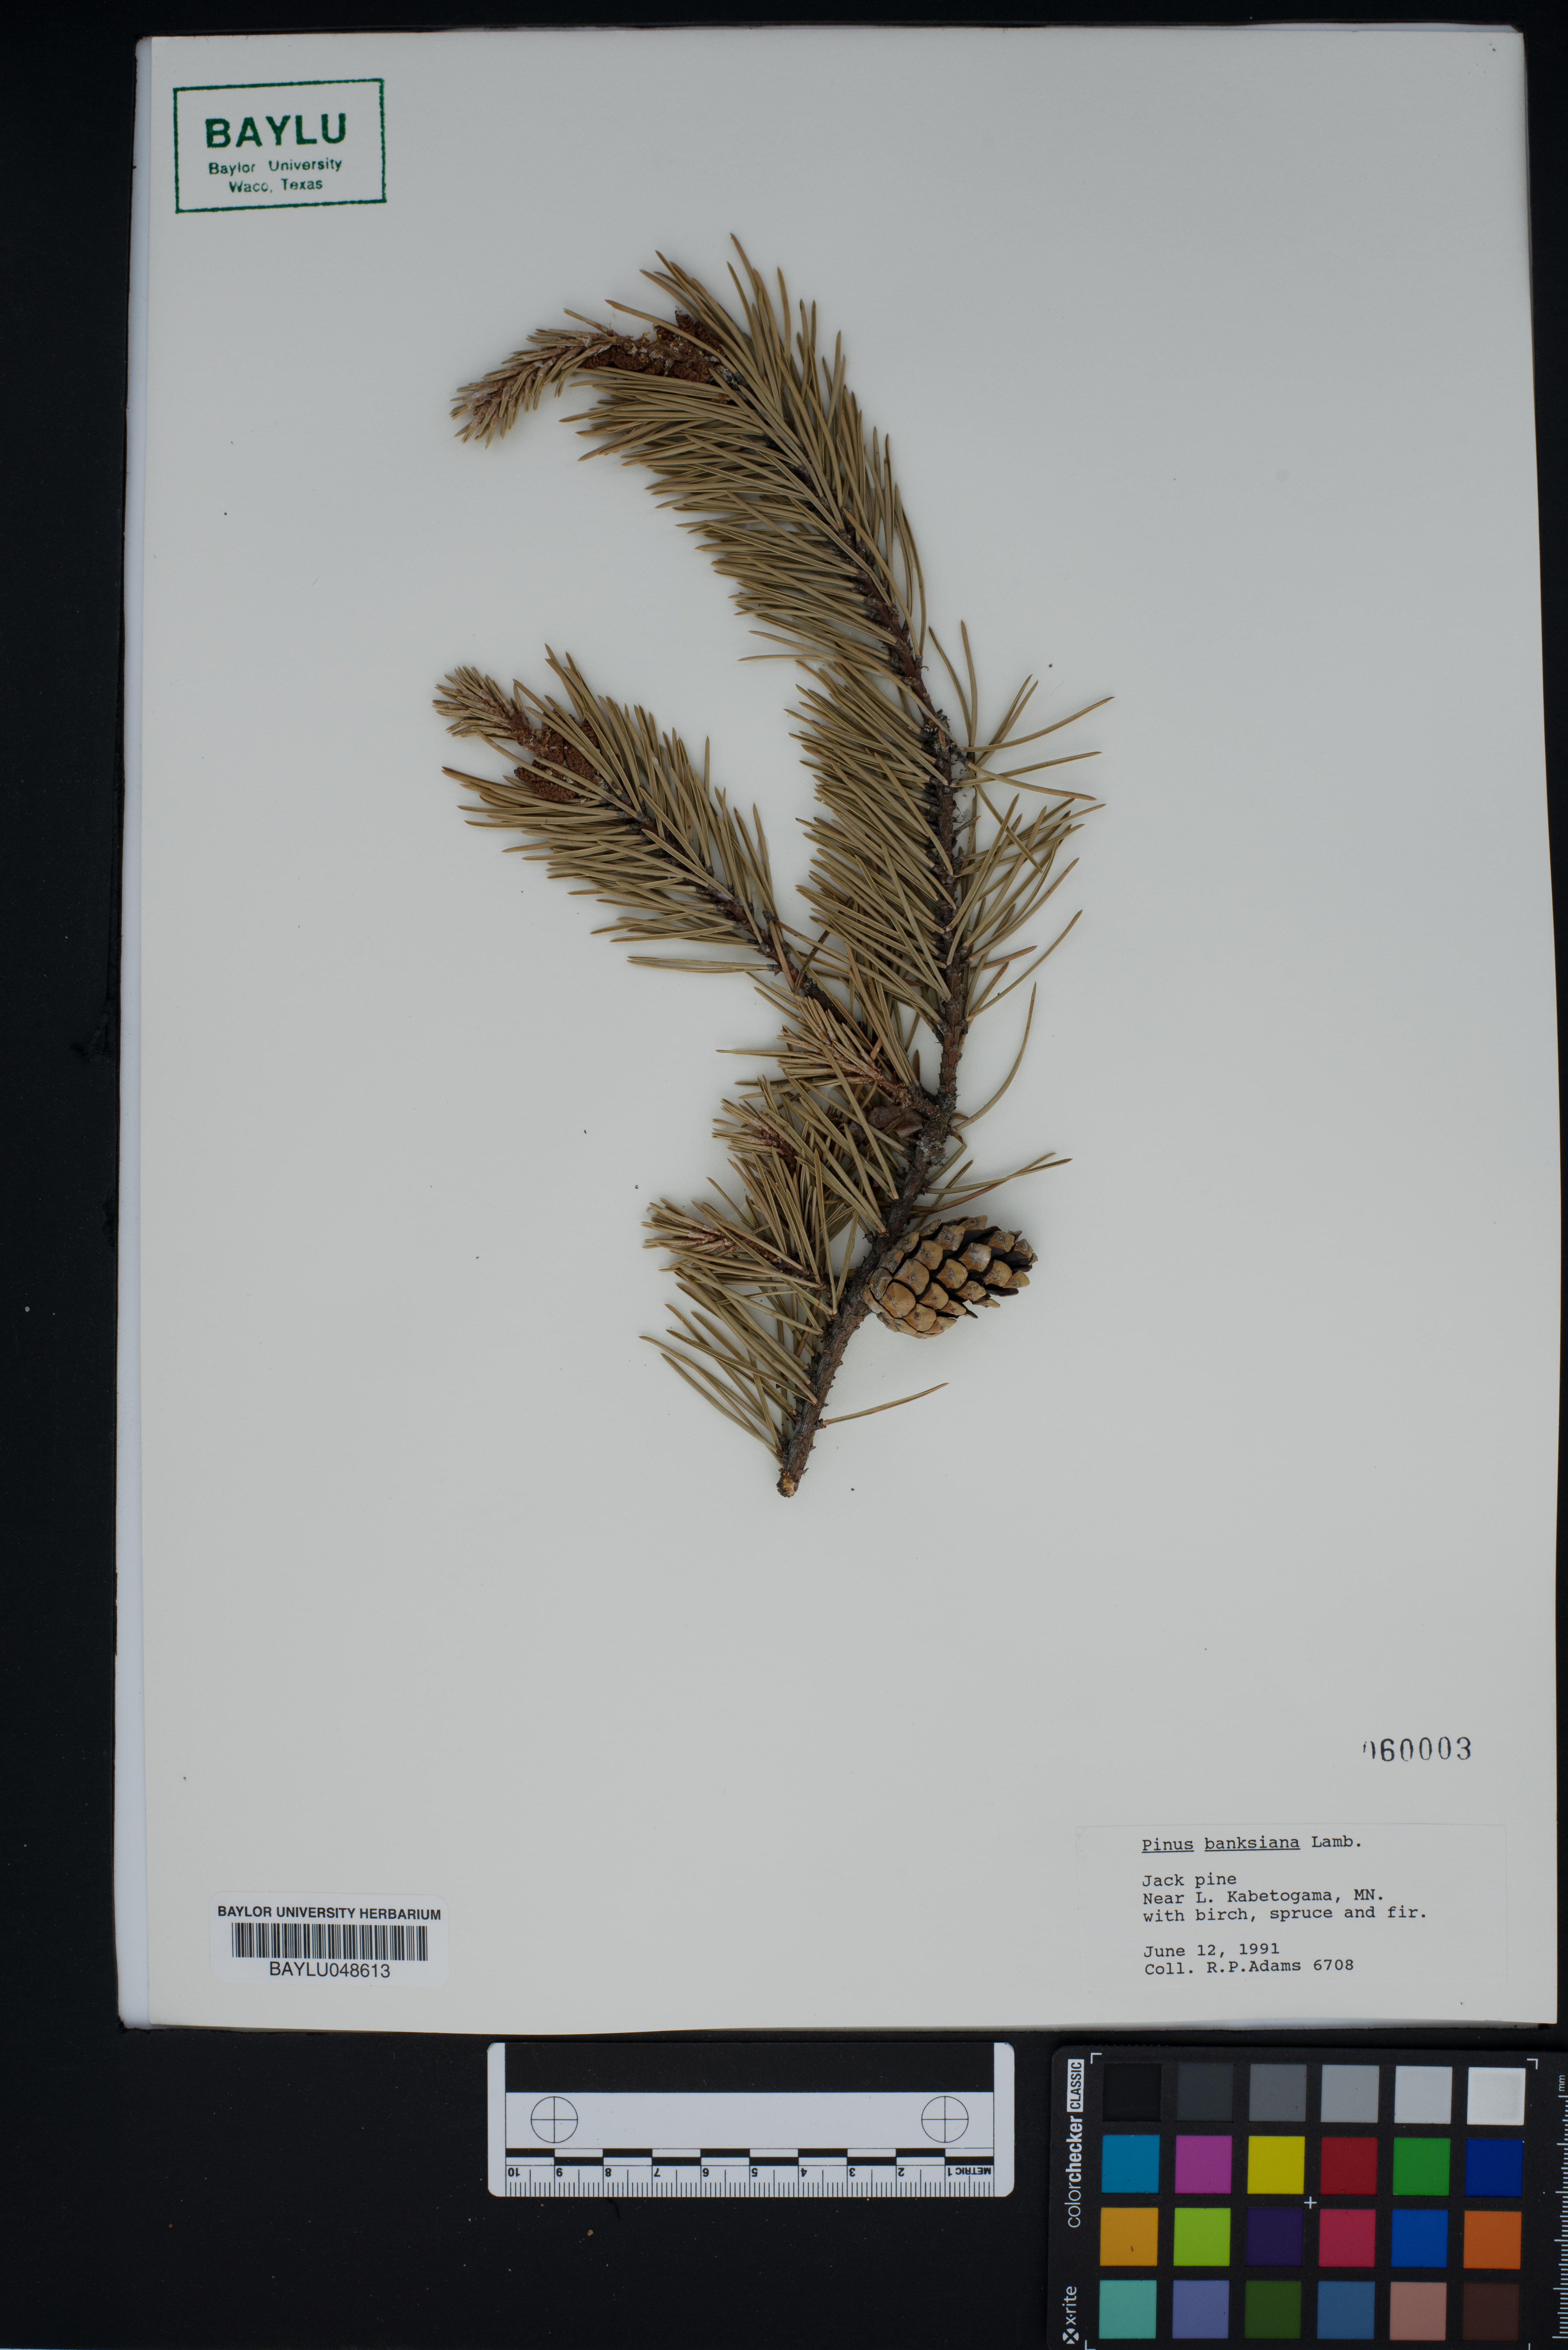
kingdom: Plantae
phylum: Tracheophyta
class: Pinopsida
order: Pinales
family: Pinaceae
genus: Pinus
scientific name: Pinus banksiana
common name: Jack pine
